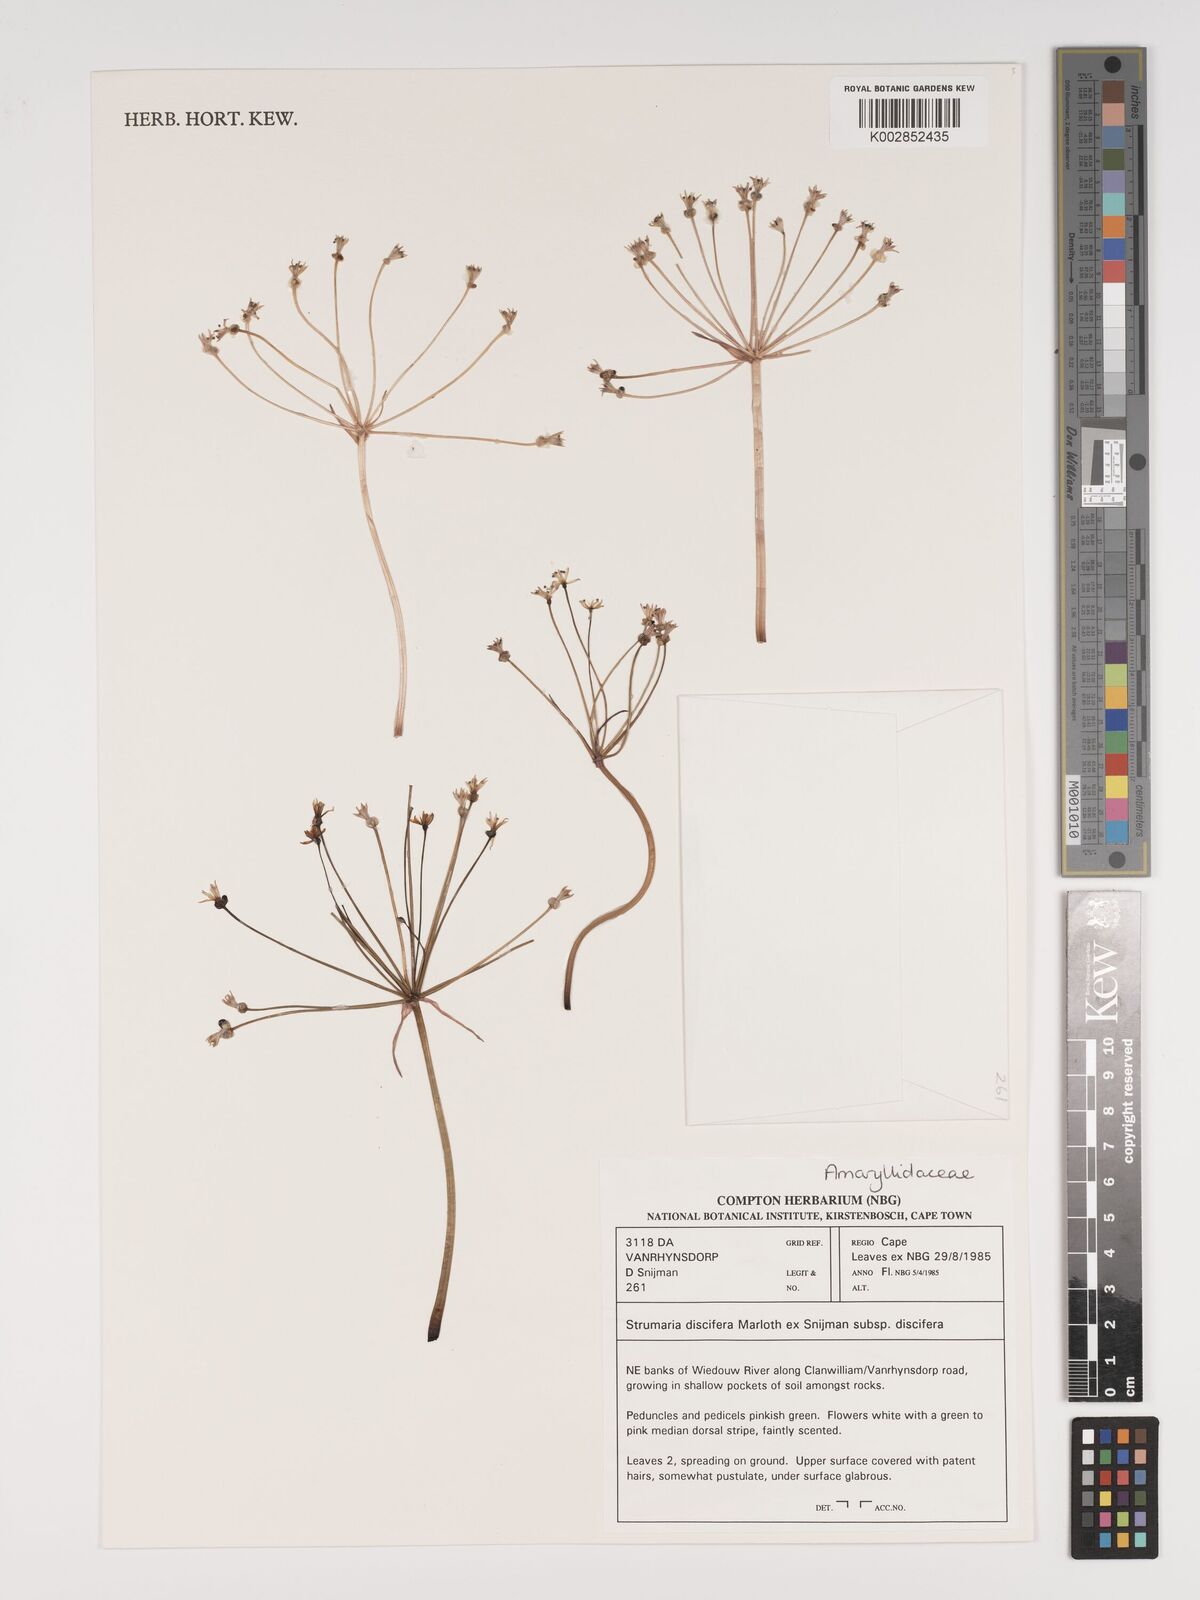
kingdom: Plantae
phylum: Tracheophyta
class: Liliopsida
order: Asparagales
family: Amaryllidaceae
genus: Strumaria
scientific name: Strumaria discifera
